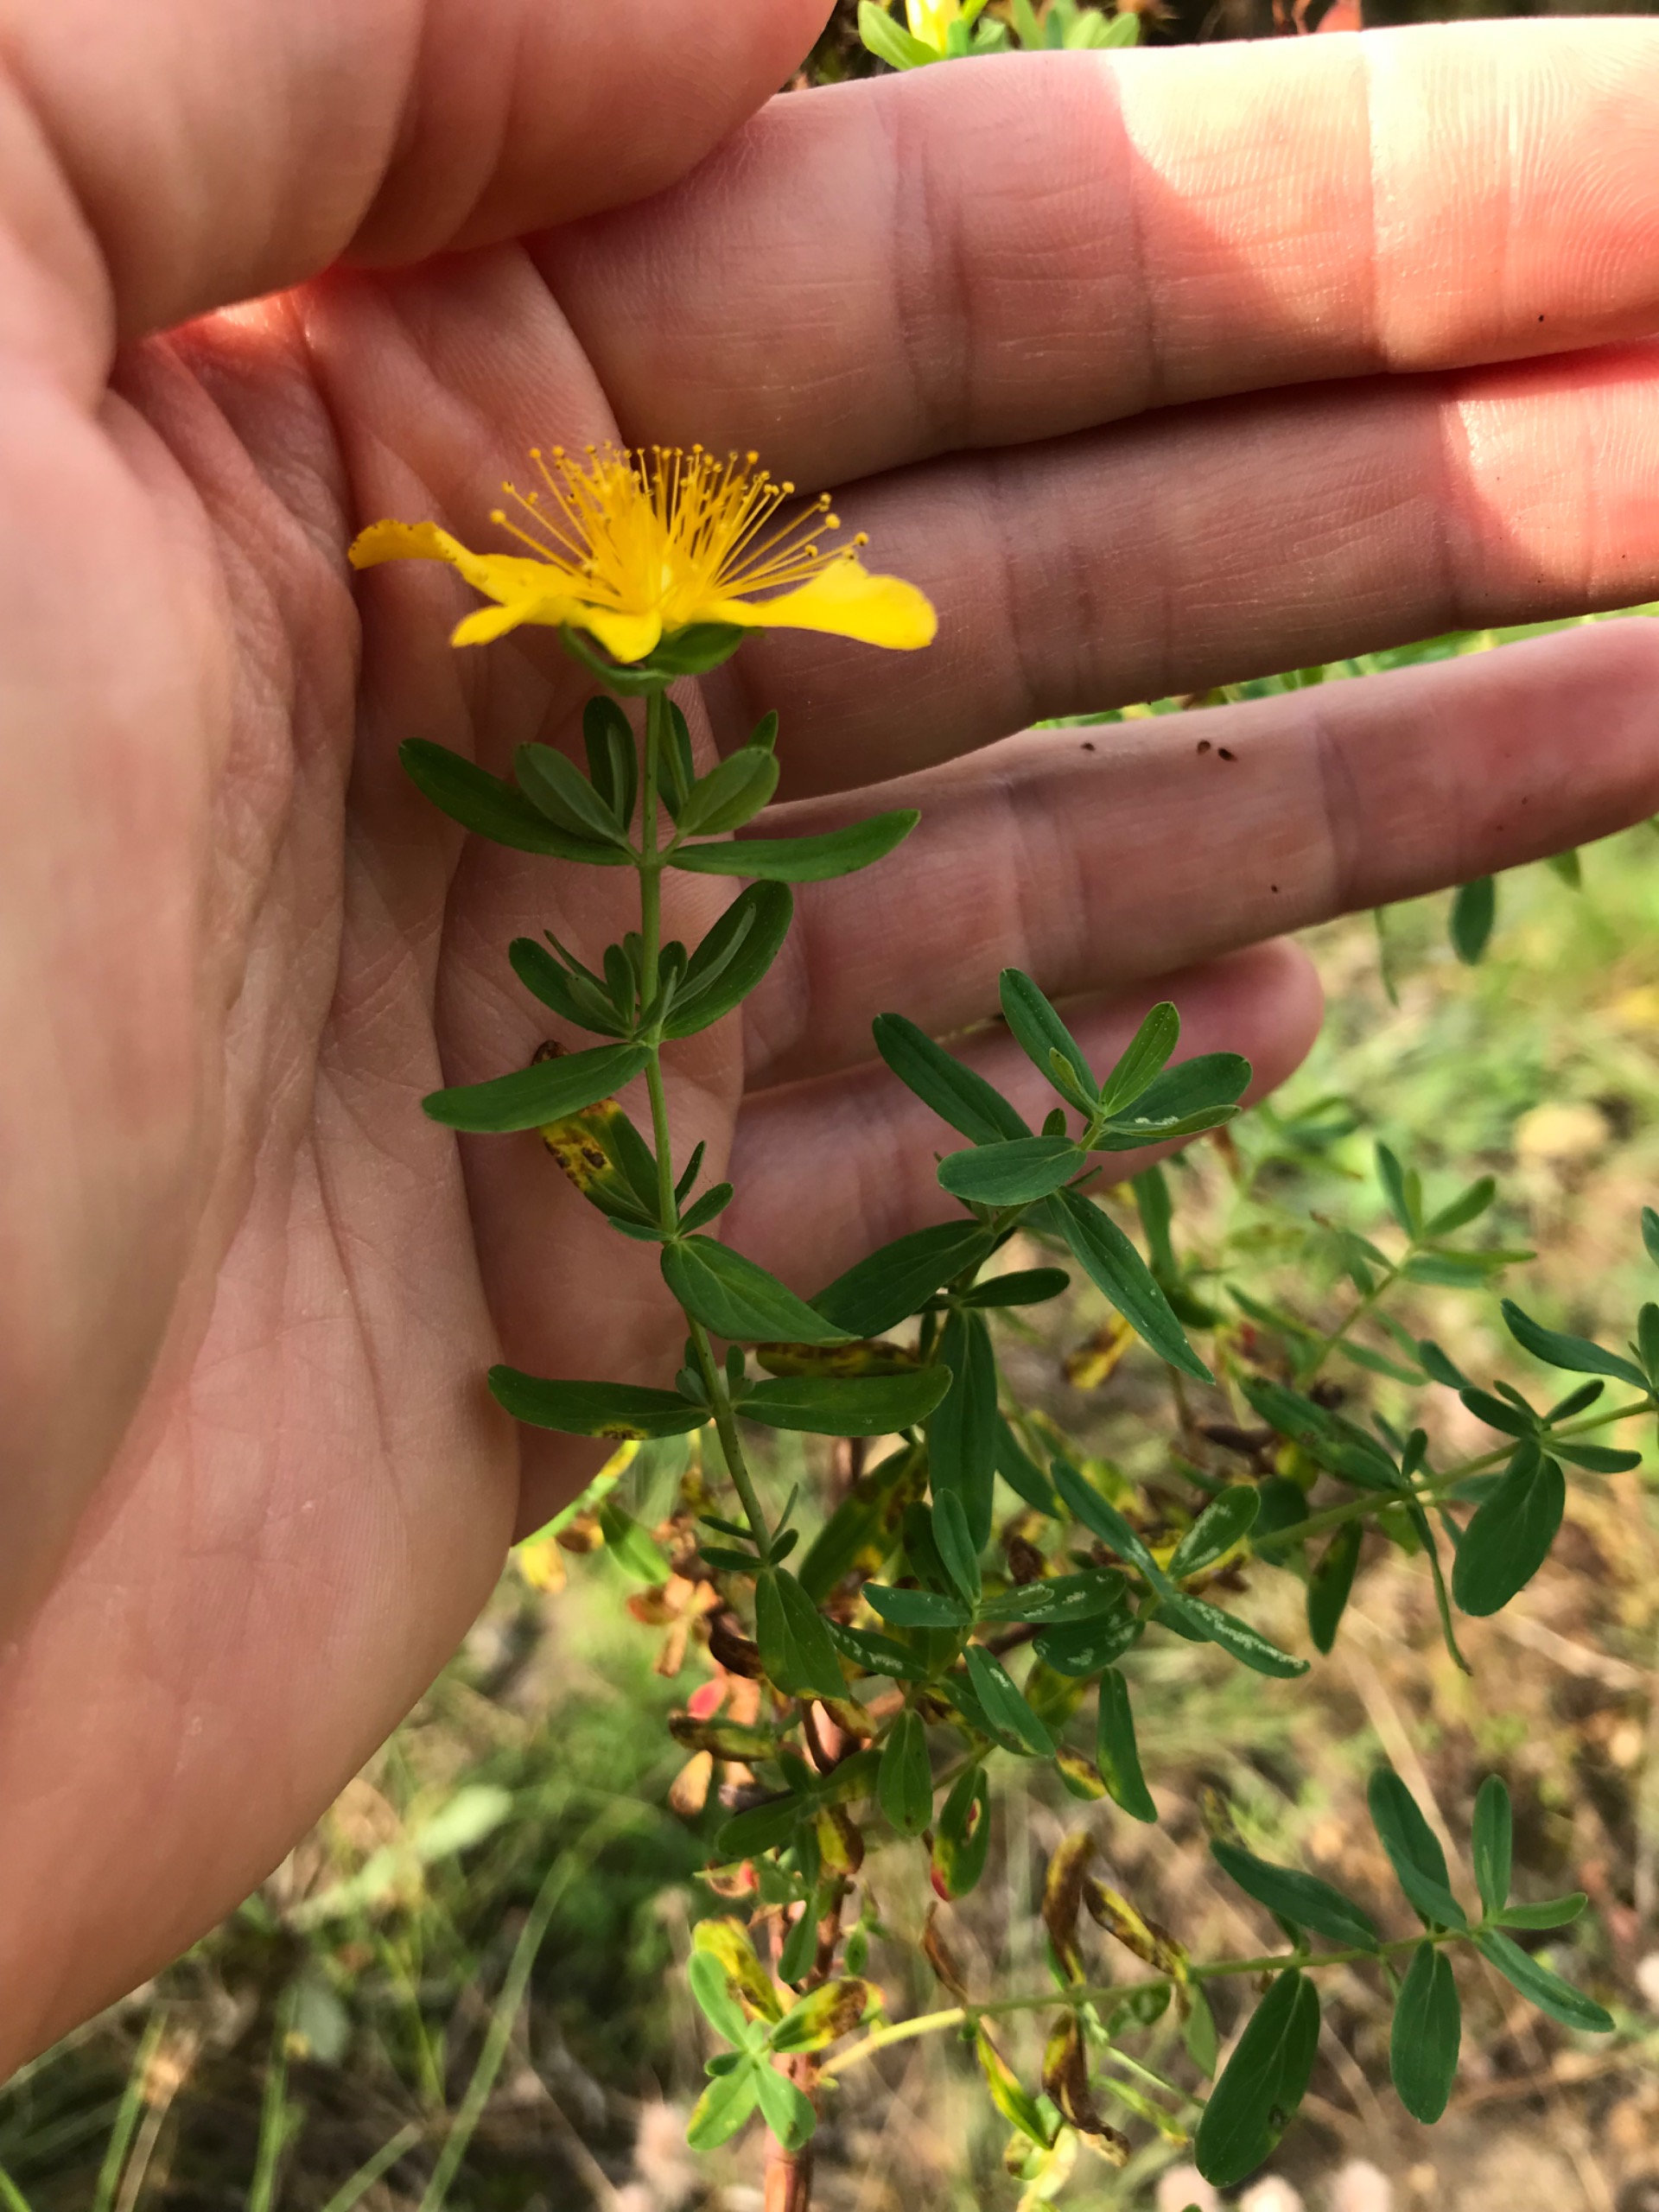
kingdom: Plantae
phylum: Tracheophyta
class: Magnoliopsida
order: Malpighiales
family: Hypericaceae
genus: Hypericum
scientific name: Hypericum perforatum
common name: Prikbladet perikon
